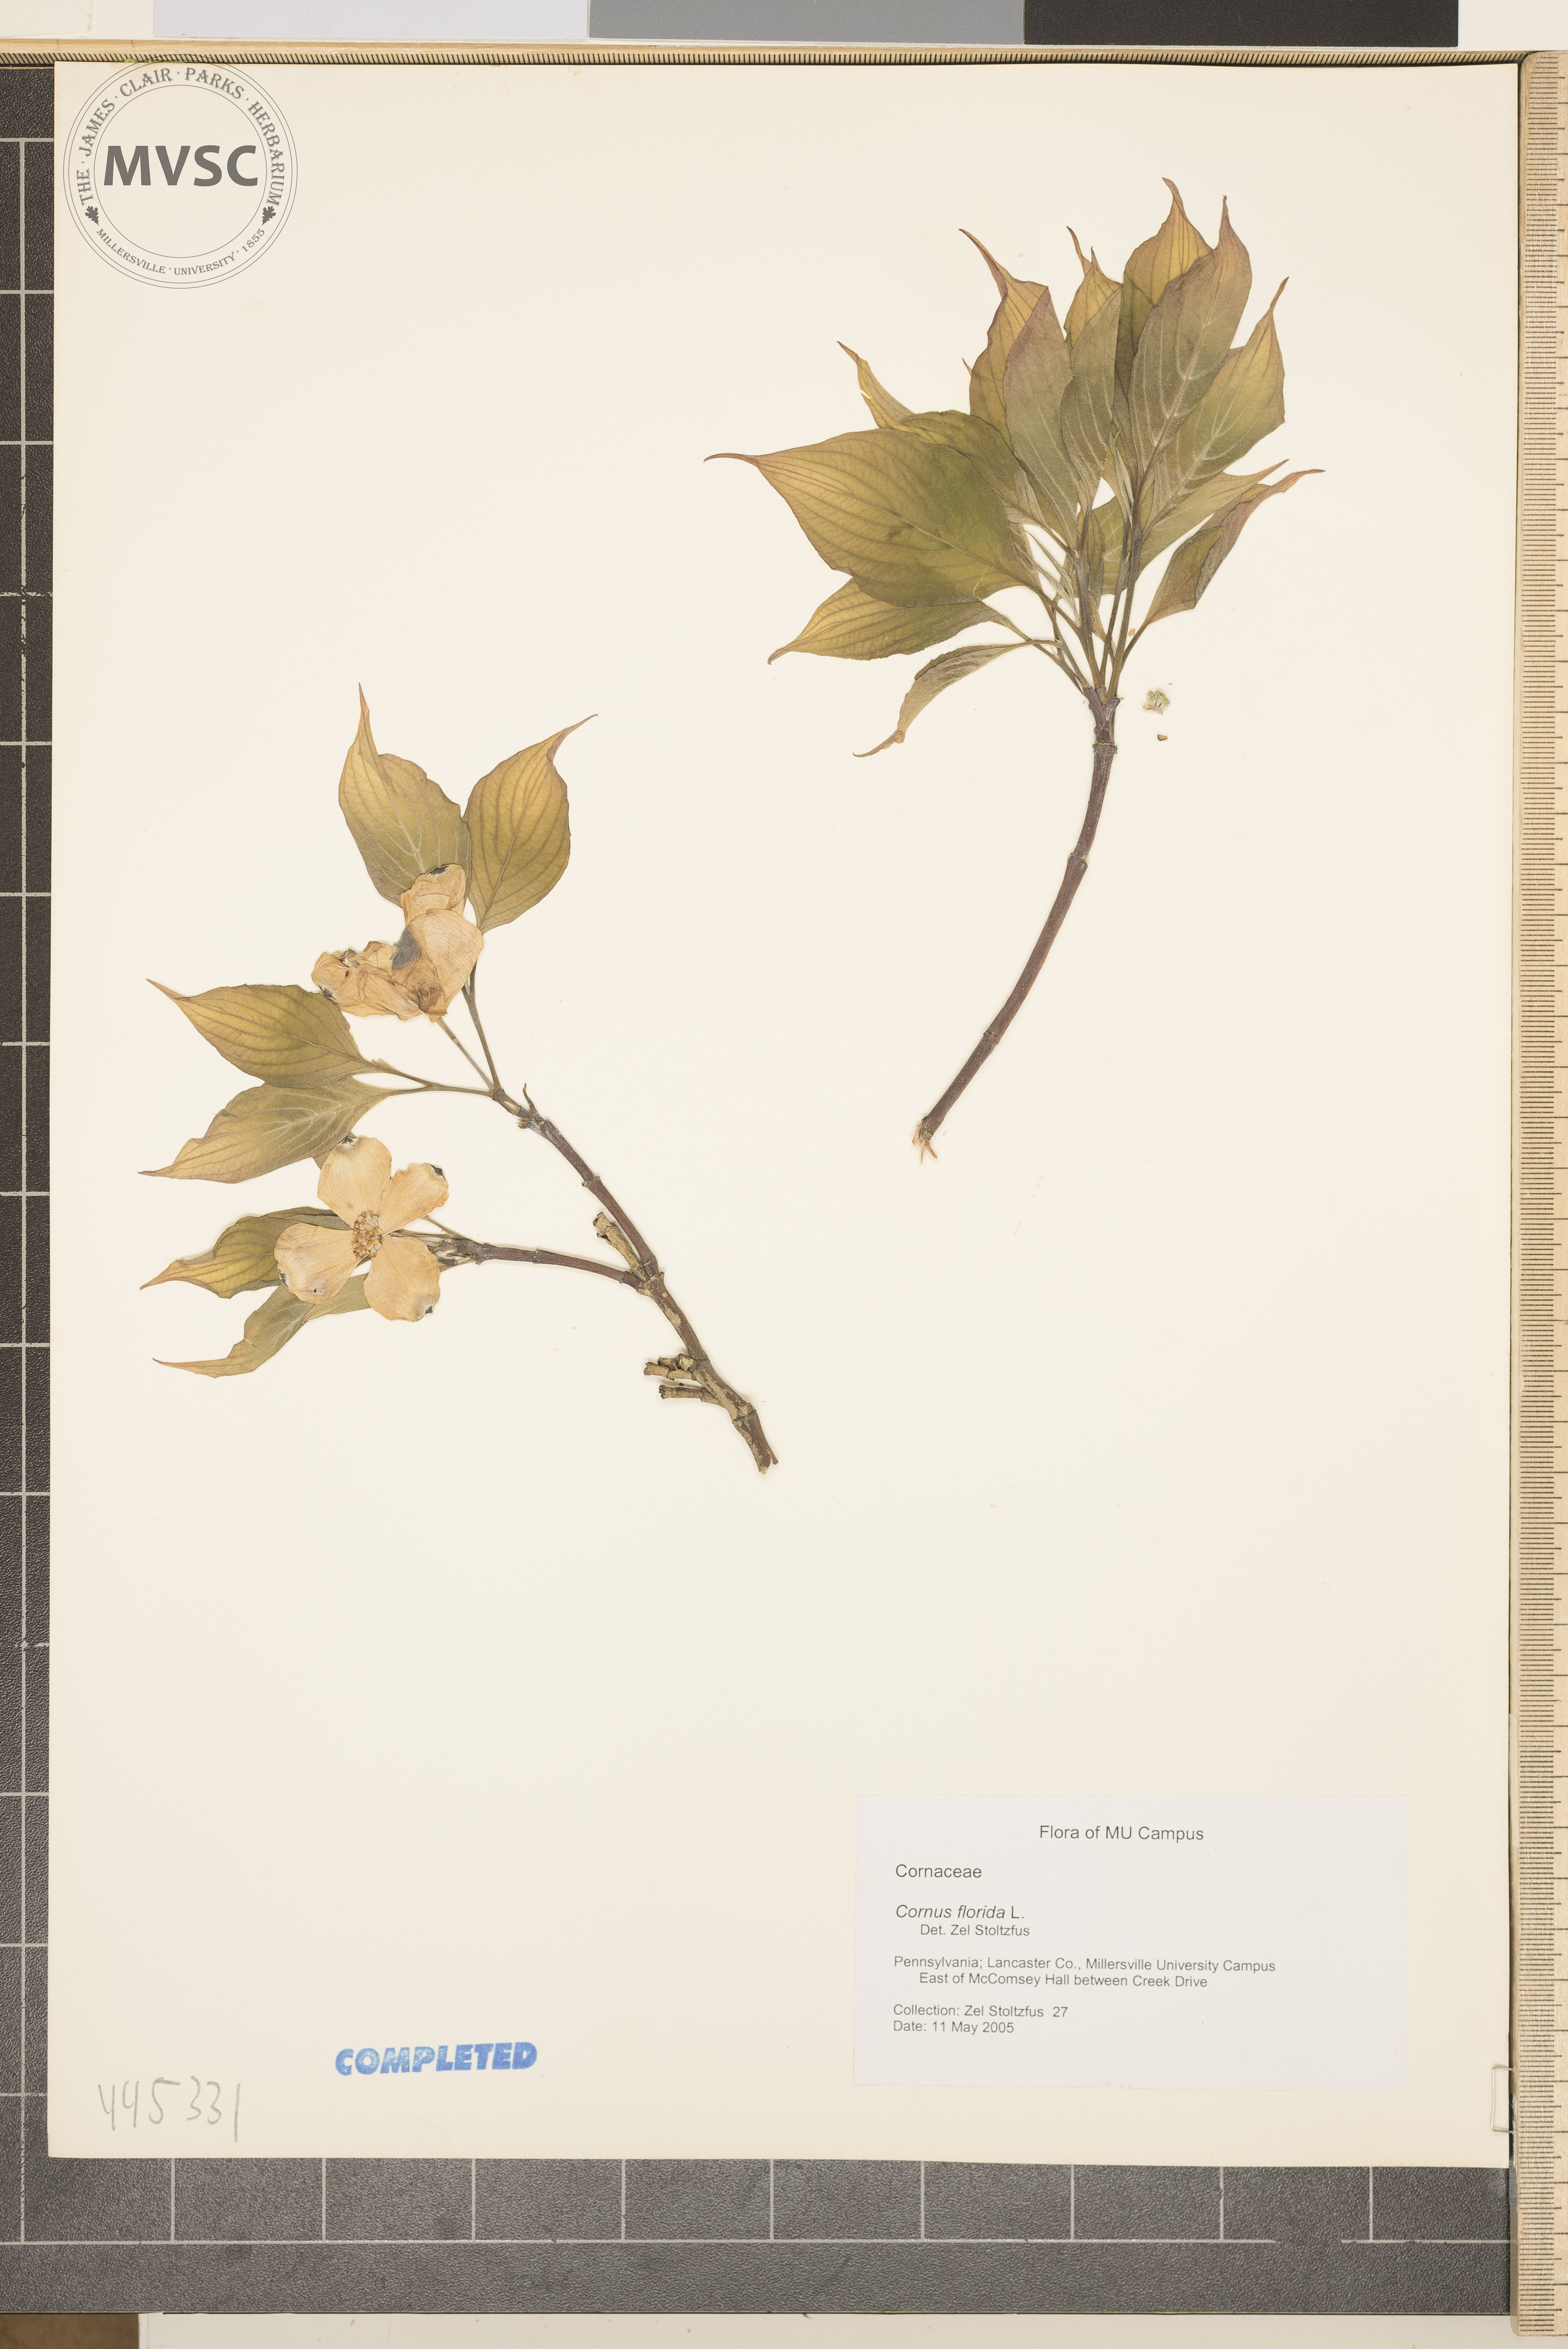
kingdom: Plantae
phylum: Tracheophyta
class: Magnoliopsida
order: Cornales
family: Cornaceae
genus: Cornus
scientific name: Cornus florida
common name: Flowering dogwood
